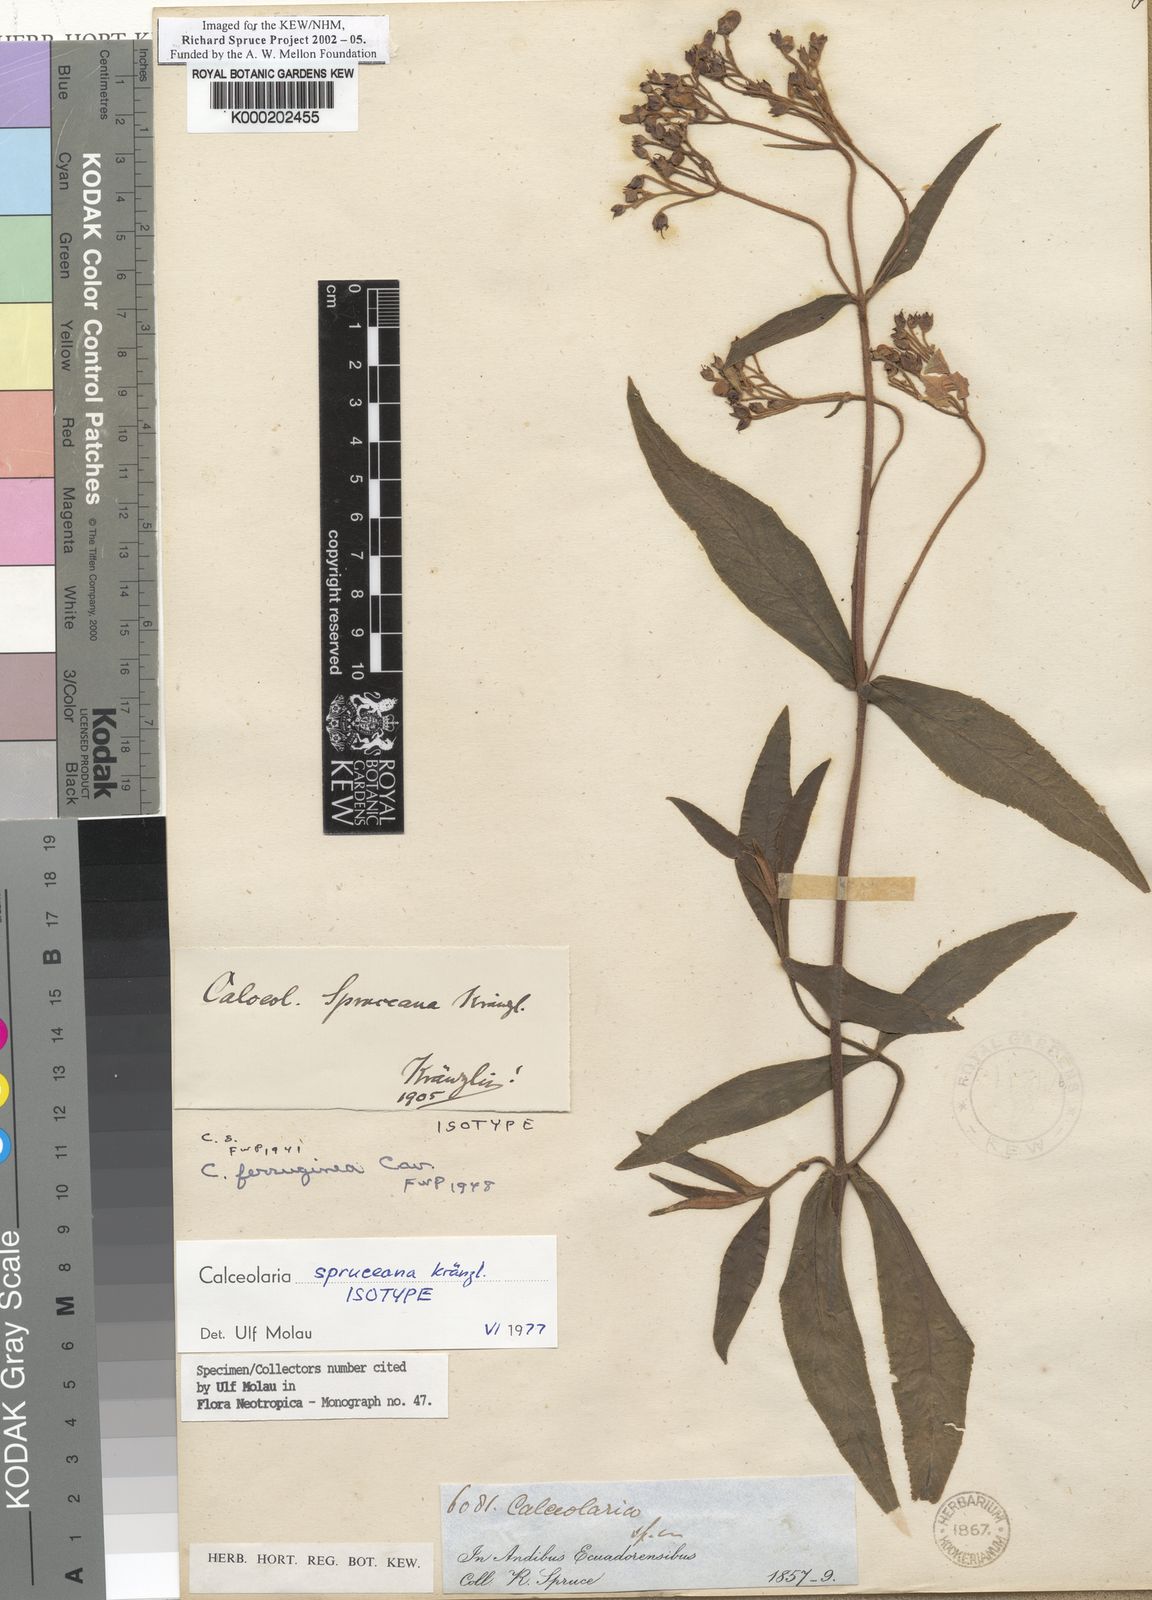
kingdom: Plantae
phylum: Tracheophyta
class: Magnoliopsida
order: Lamiales
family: Calceolariaceae
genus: Calceolaria
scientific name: Calceolaria spruceana
